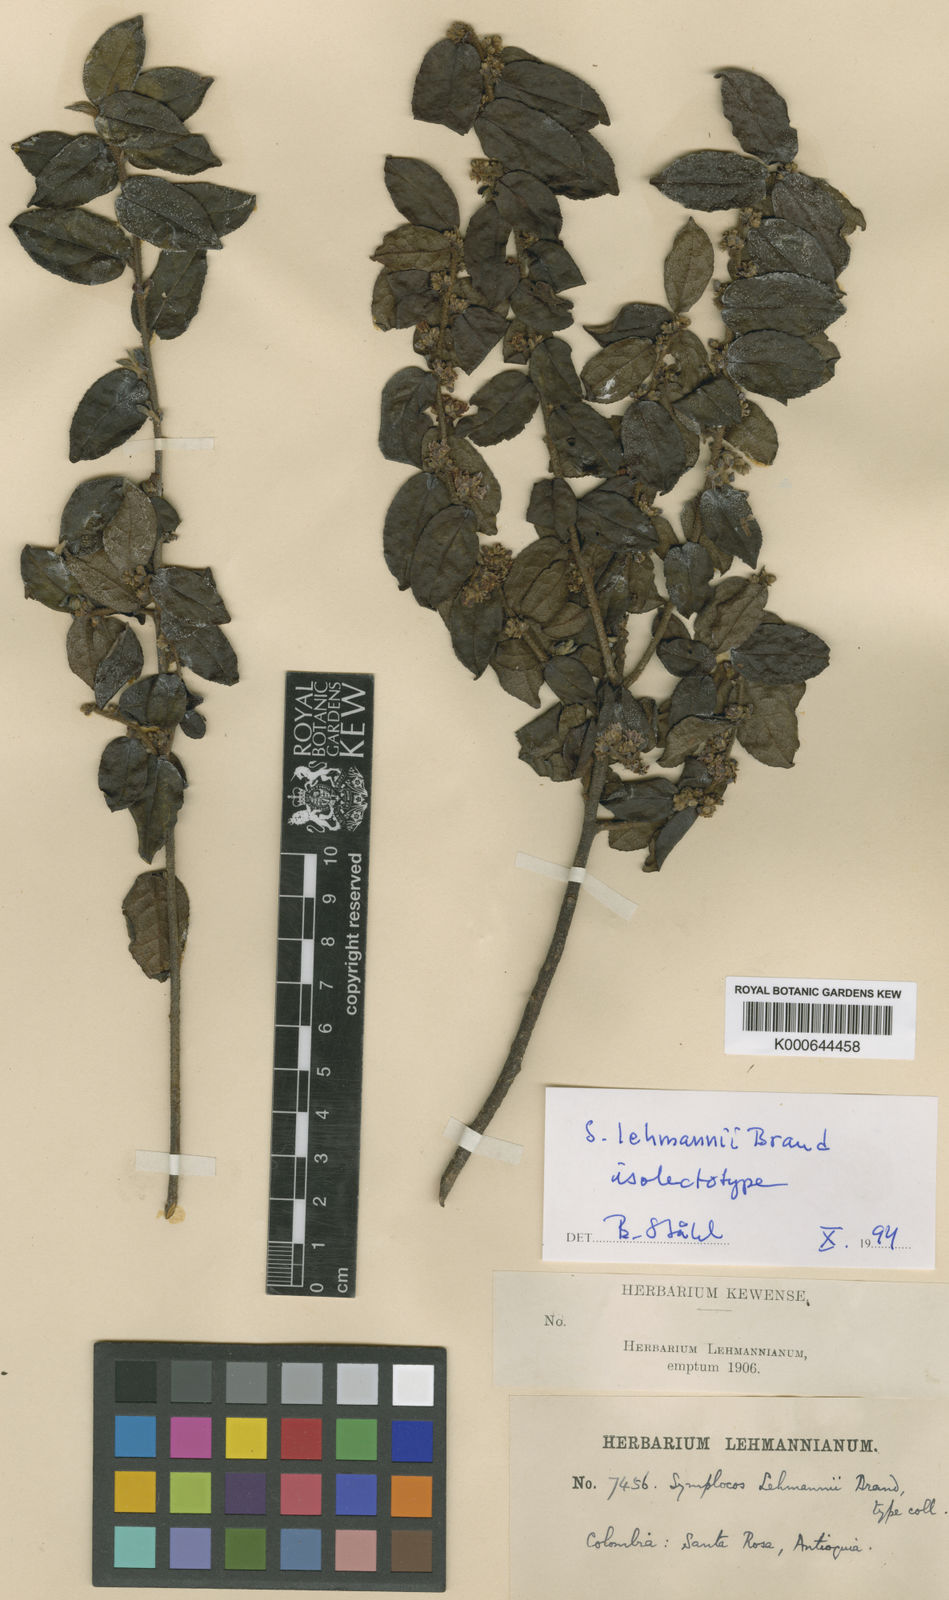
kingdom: Plantae
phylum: Tracheophyta
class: Magnoliopsida
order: Ericales
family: Symplocaceae
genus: Symplocos
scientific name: Symplocos lehmannii
